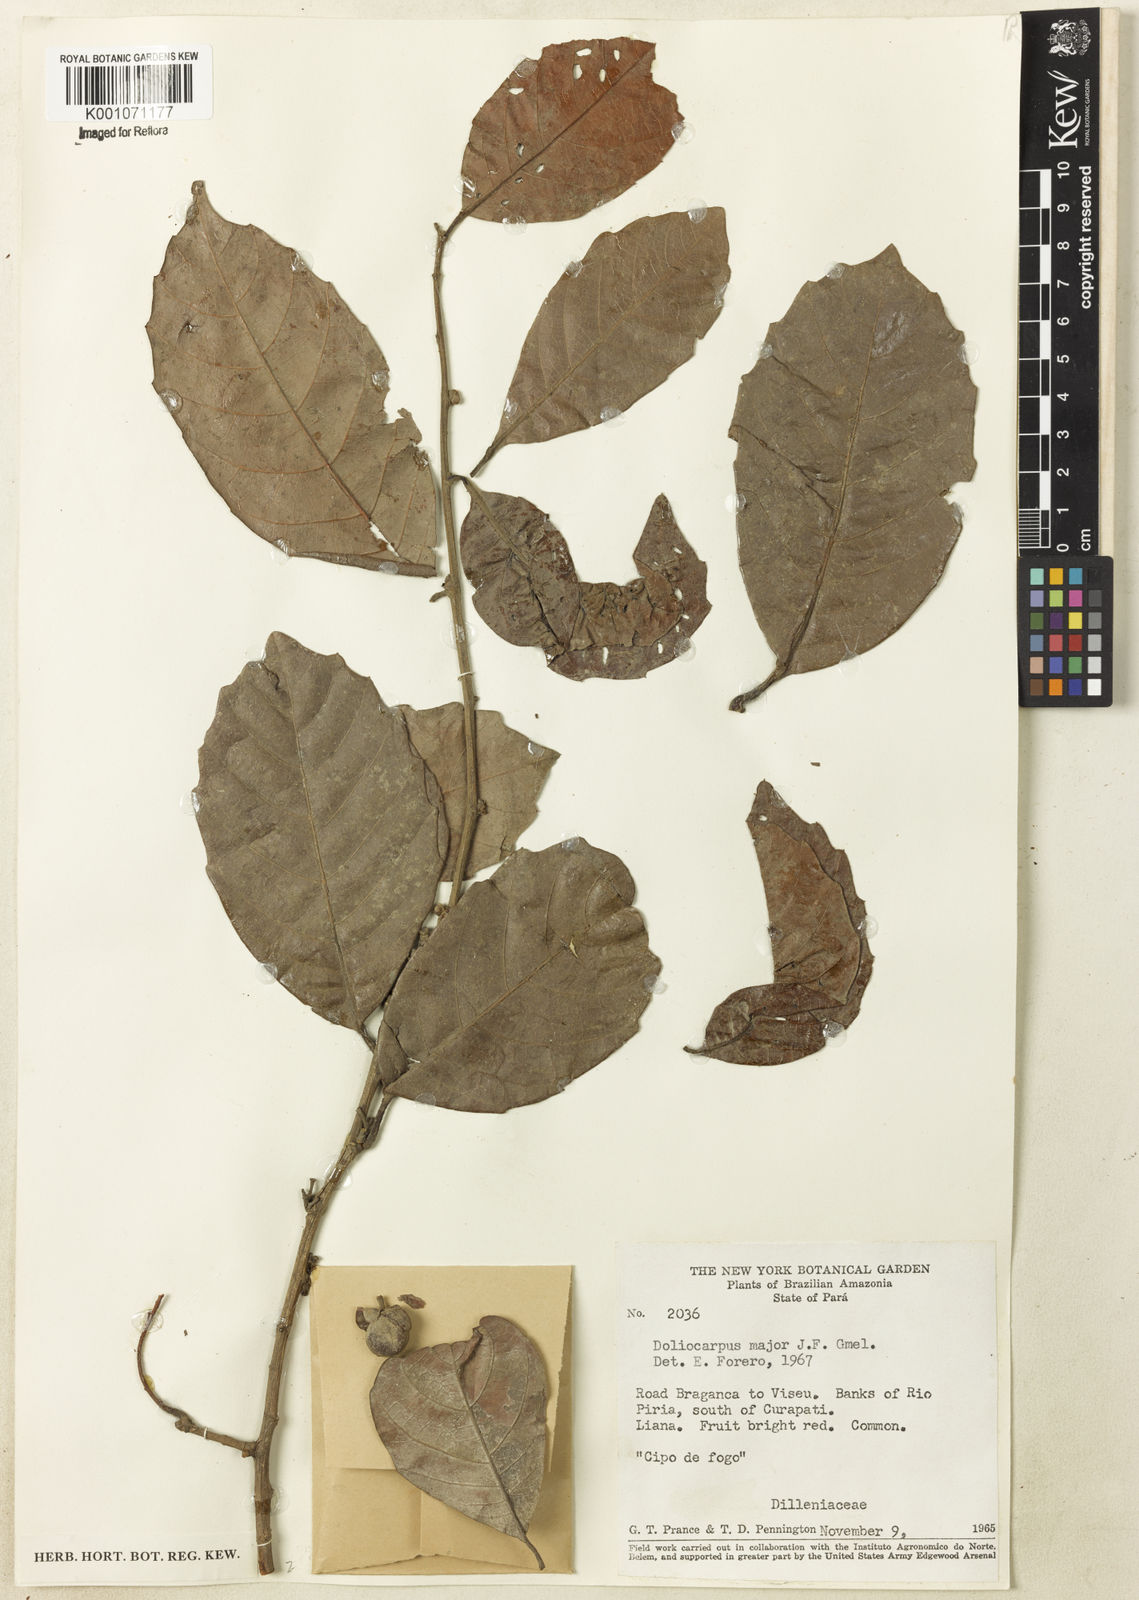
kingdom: Plantae
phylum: Tracheophyta
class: Magnoliopsida
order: Dilleniales
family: Dilleniaceae
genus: Doliocarpus
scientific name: Doliocarpus major
